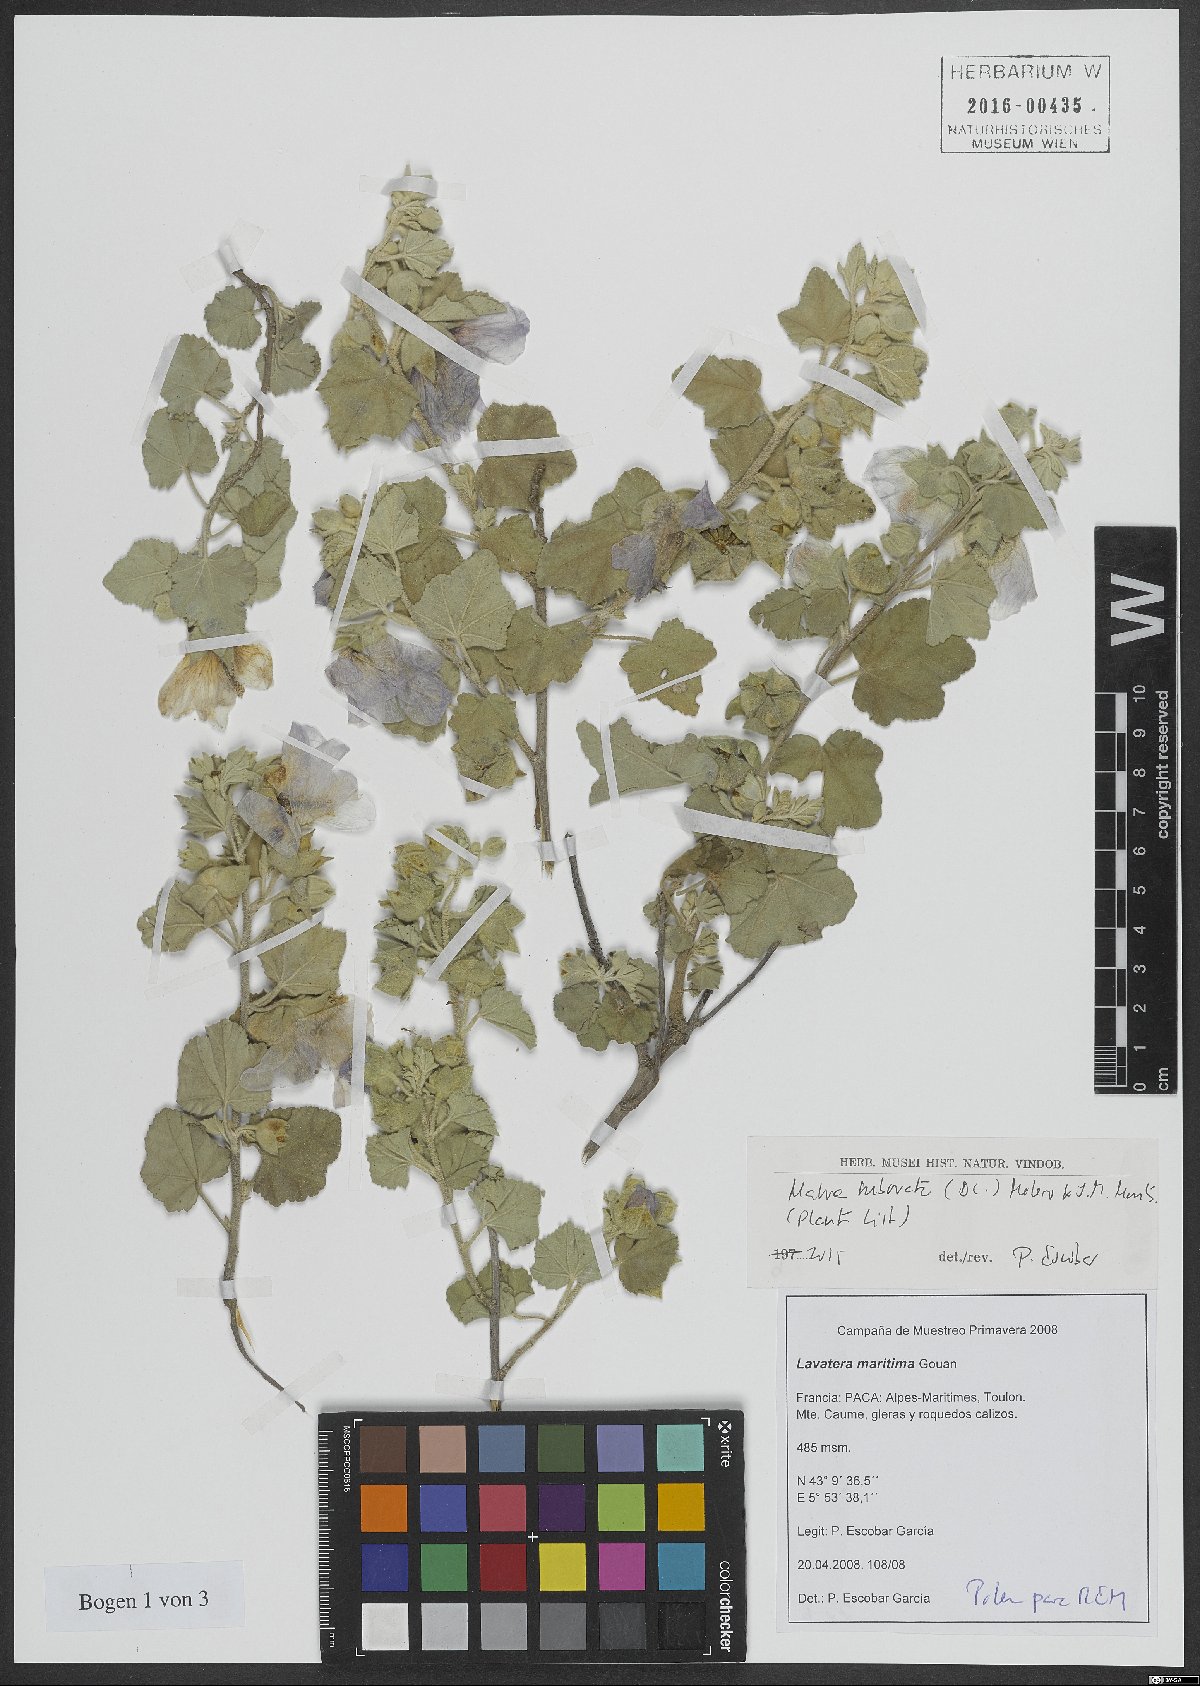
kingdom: Plantae
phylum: Tracheophyta
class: Magnoliopsida
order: Malvales
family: Malvaceae
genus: Malva
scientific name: Malva subovata
